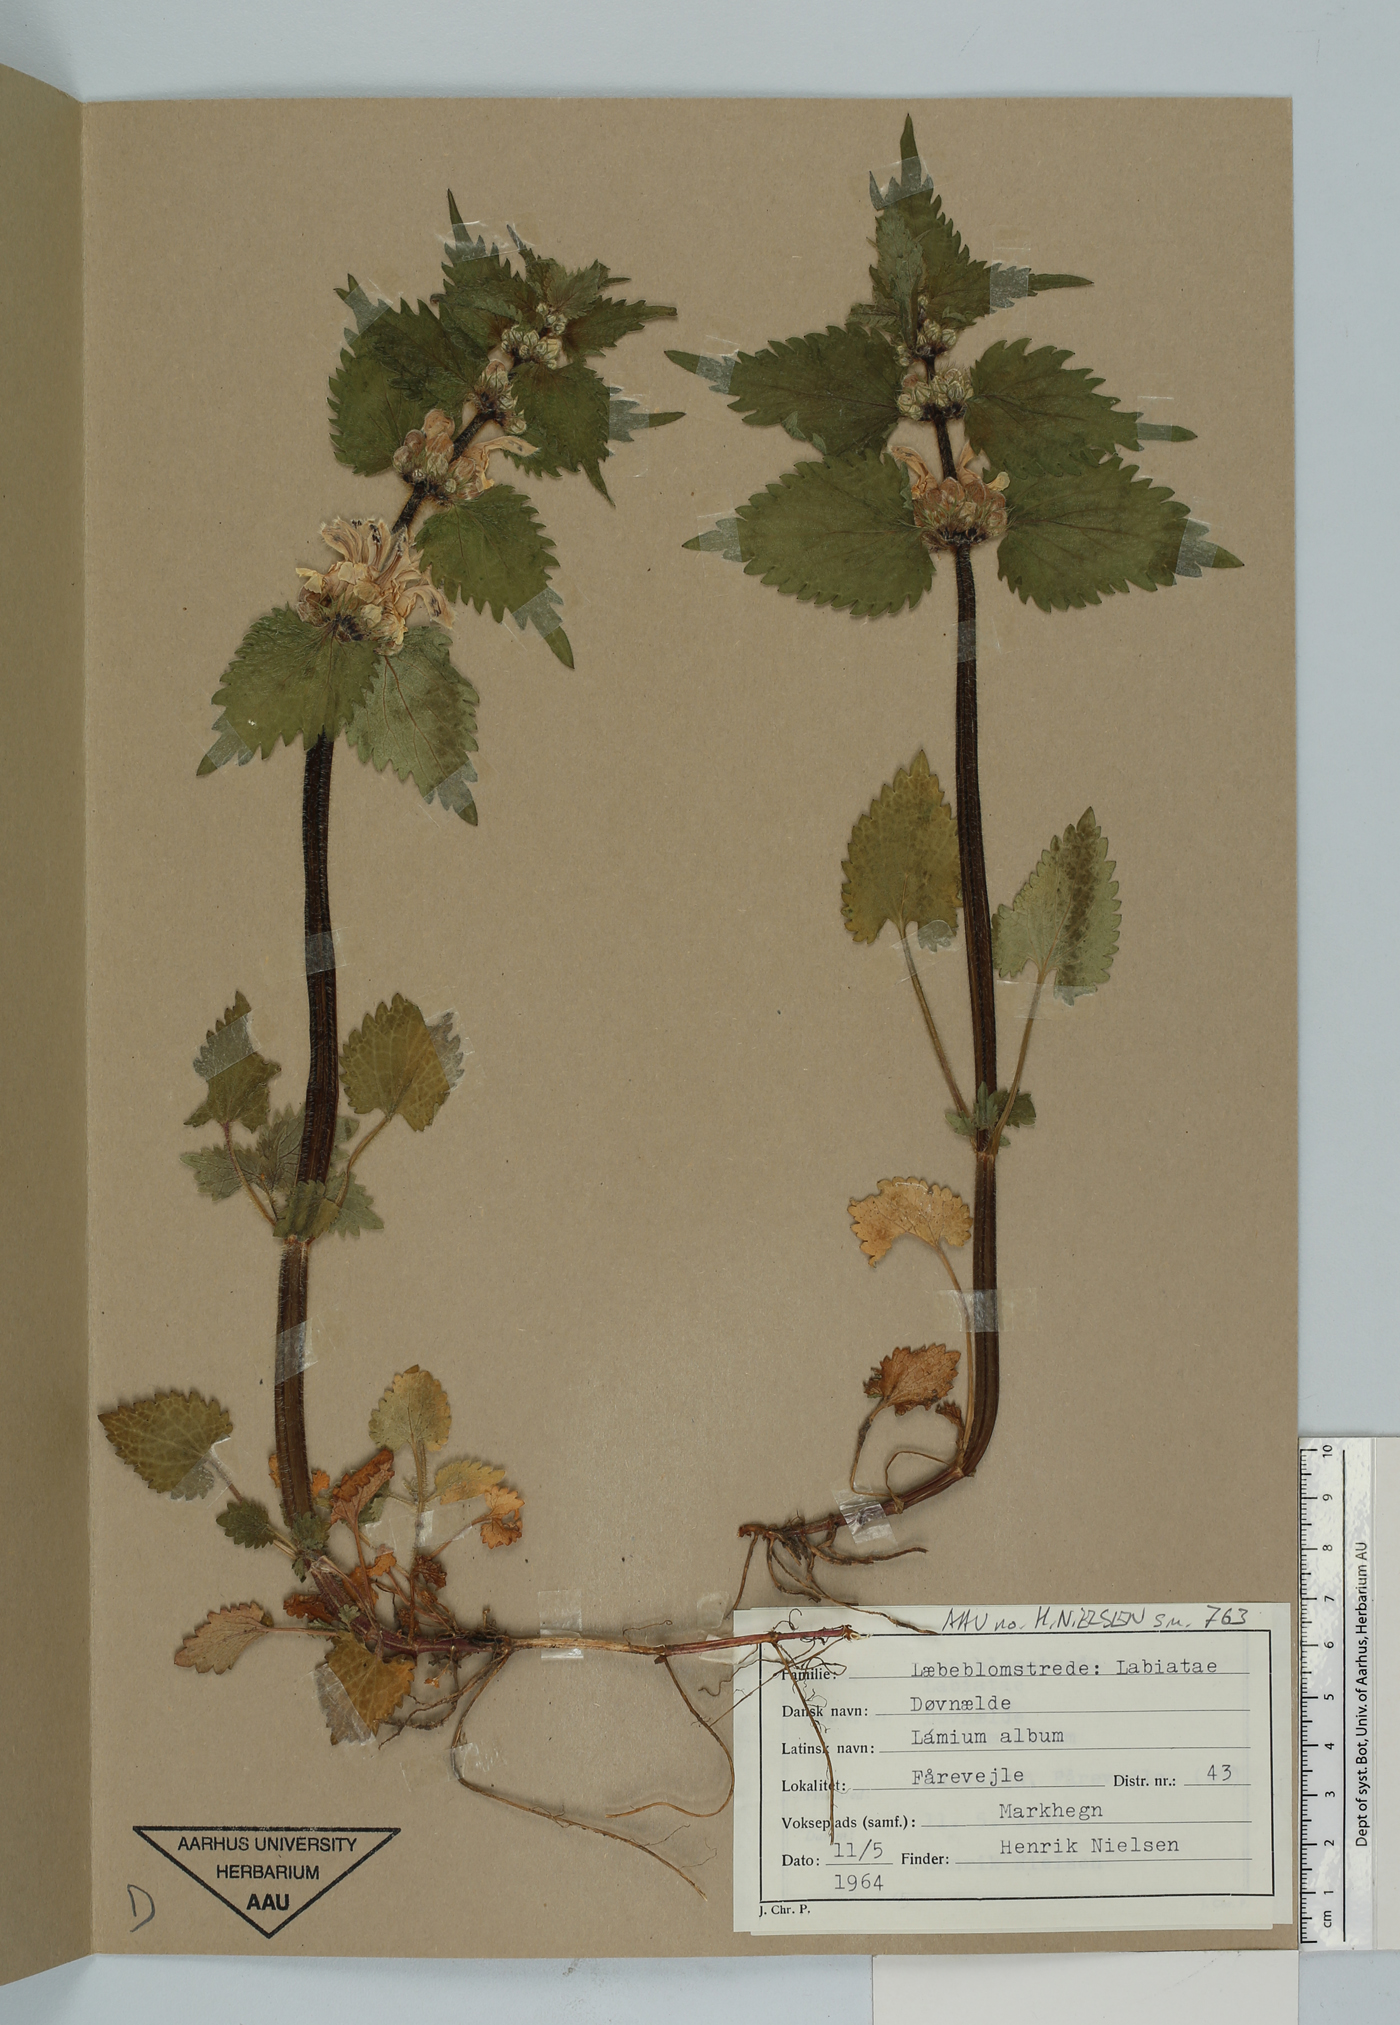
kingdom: Plantae
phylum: Tracheophyta
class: Magnoliopsida
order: Lamiales
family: Lamiaceae
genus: Lamium
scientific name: Lamium album
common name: White dead-nettle
